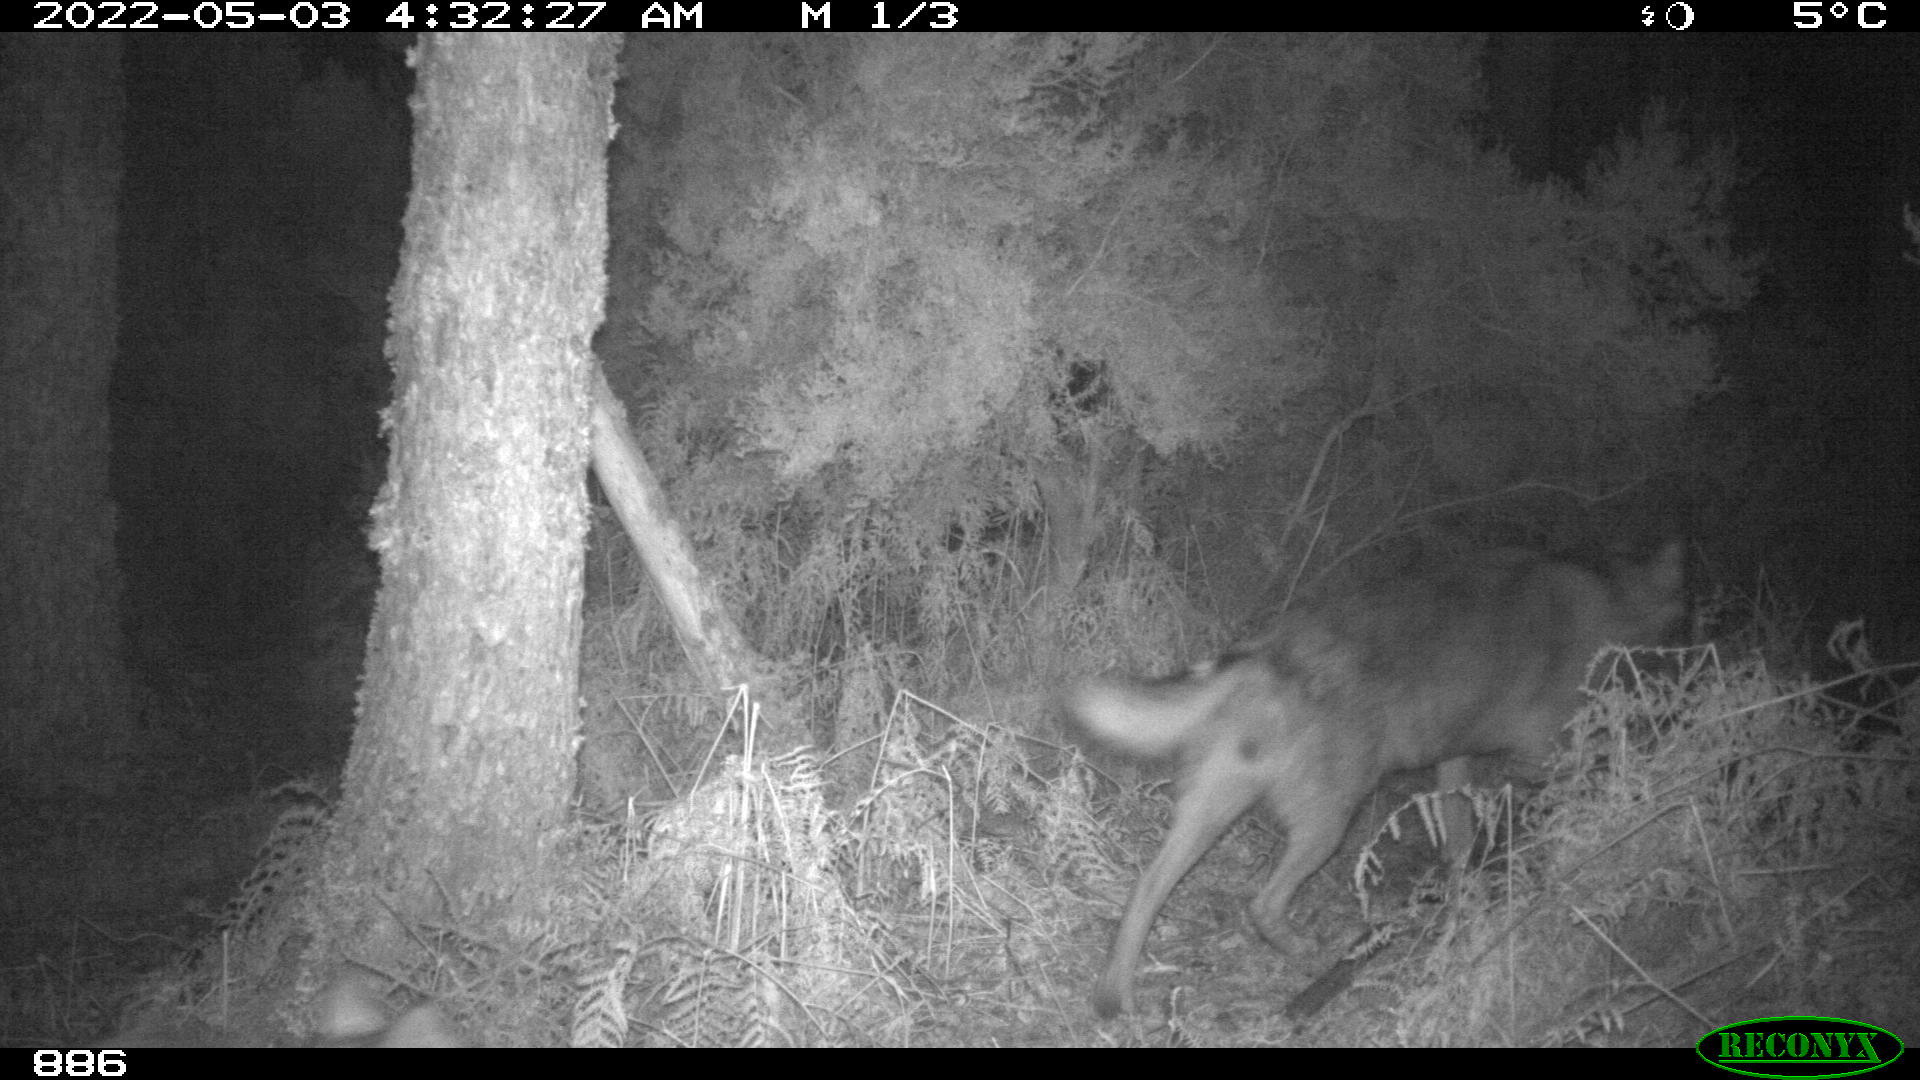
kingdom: Animalia
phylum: Chordata
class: Mammalia
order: Carnivora
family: Canidae
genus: Canis
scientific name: Canis lupus
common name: Gray wolf
